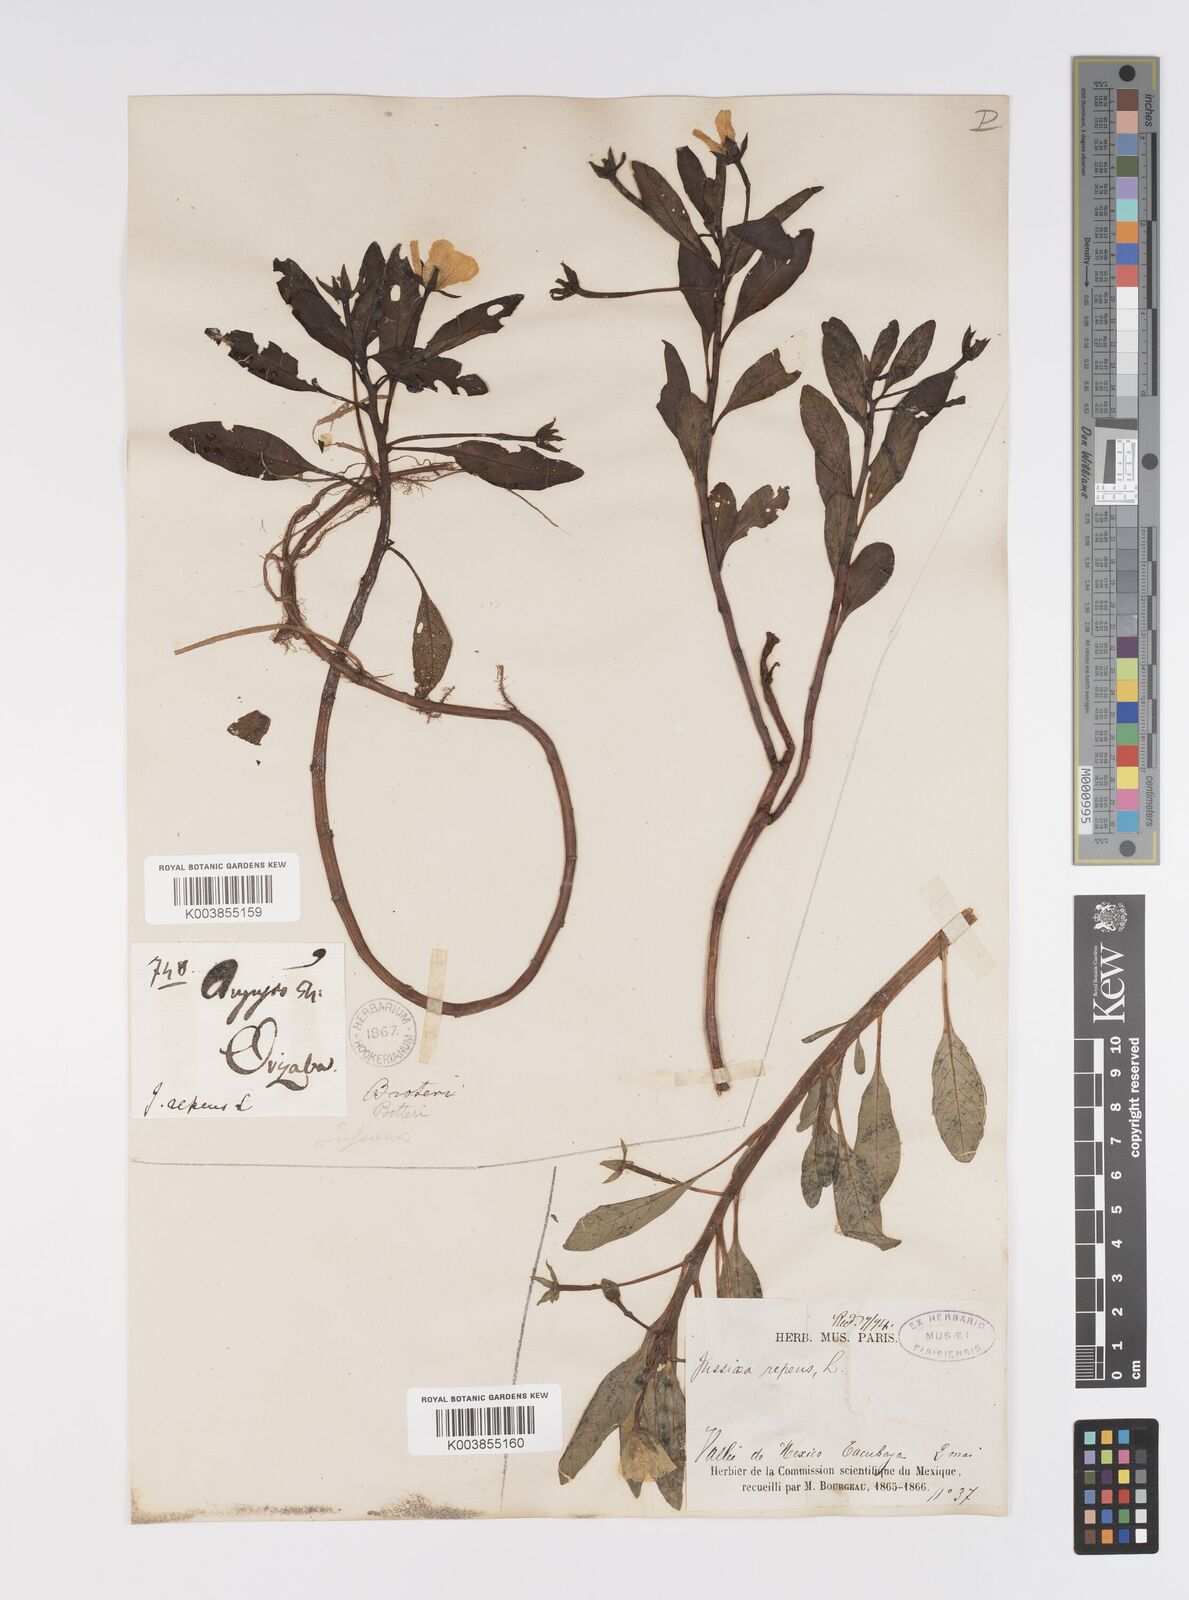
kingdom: Plantae
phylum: Tracheophyta
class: Magnoliopsida
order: Myrtales
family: Onagraceae
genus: Ludwigia
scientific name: Ludwigia adscendens
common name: Creeping water primrose
